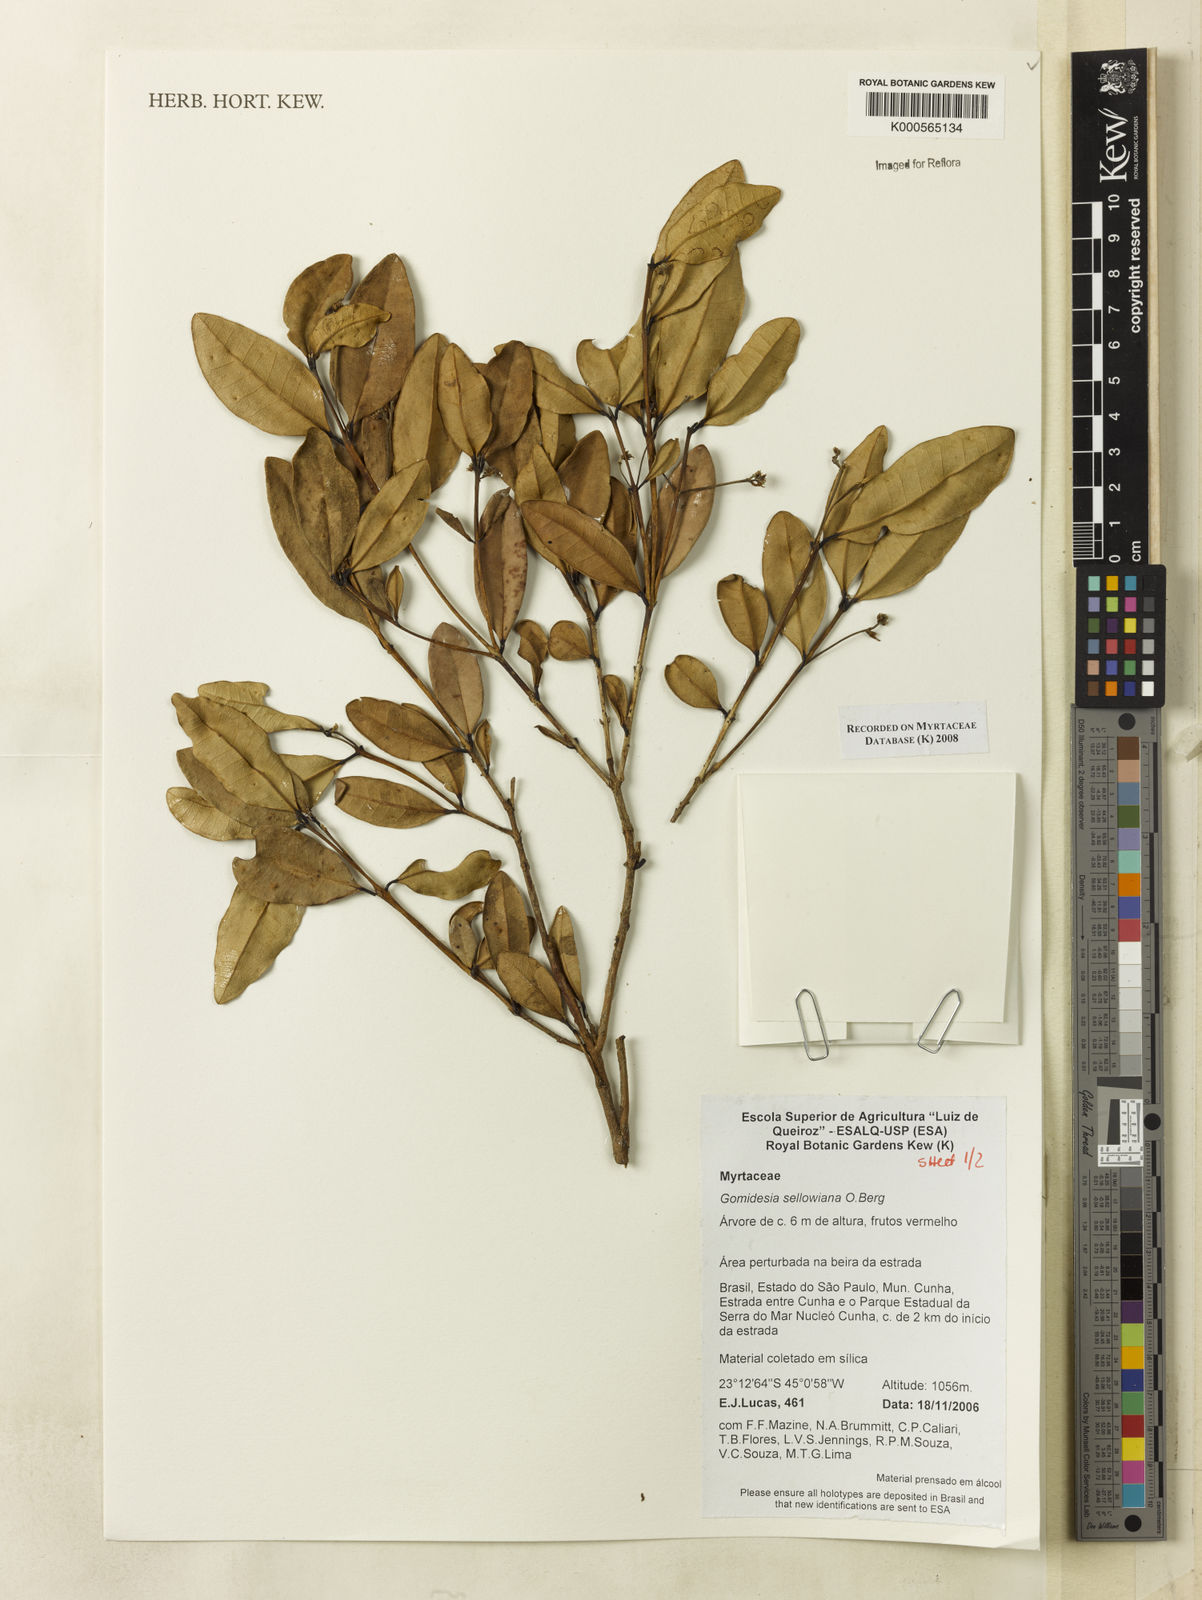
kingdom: Plantae
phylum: Tracheophyta
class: Magnoliopsida
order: Myrtales
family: Myrtaceae
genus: Myrcia
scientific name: Myrcia hartwegiana
